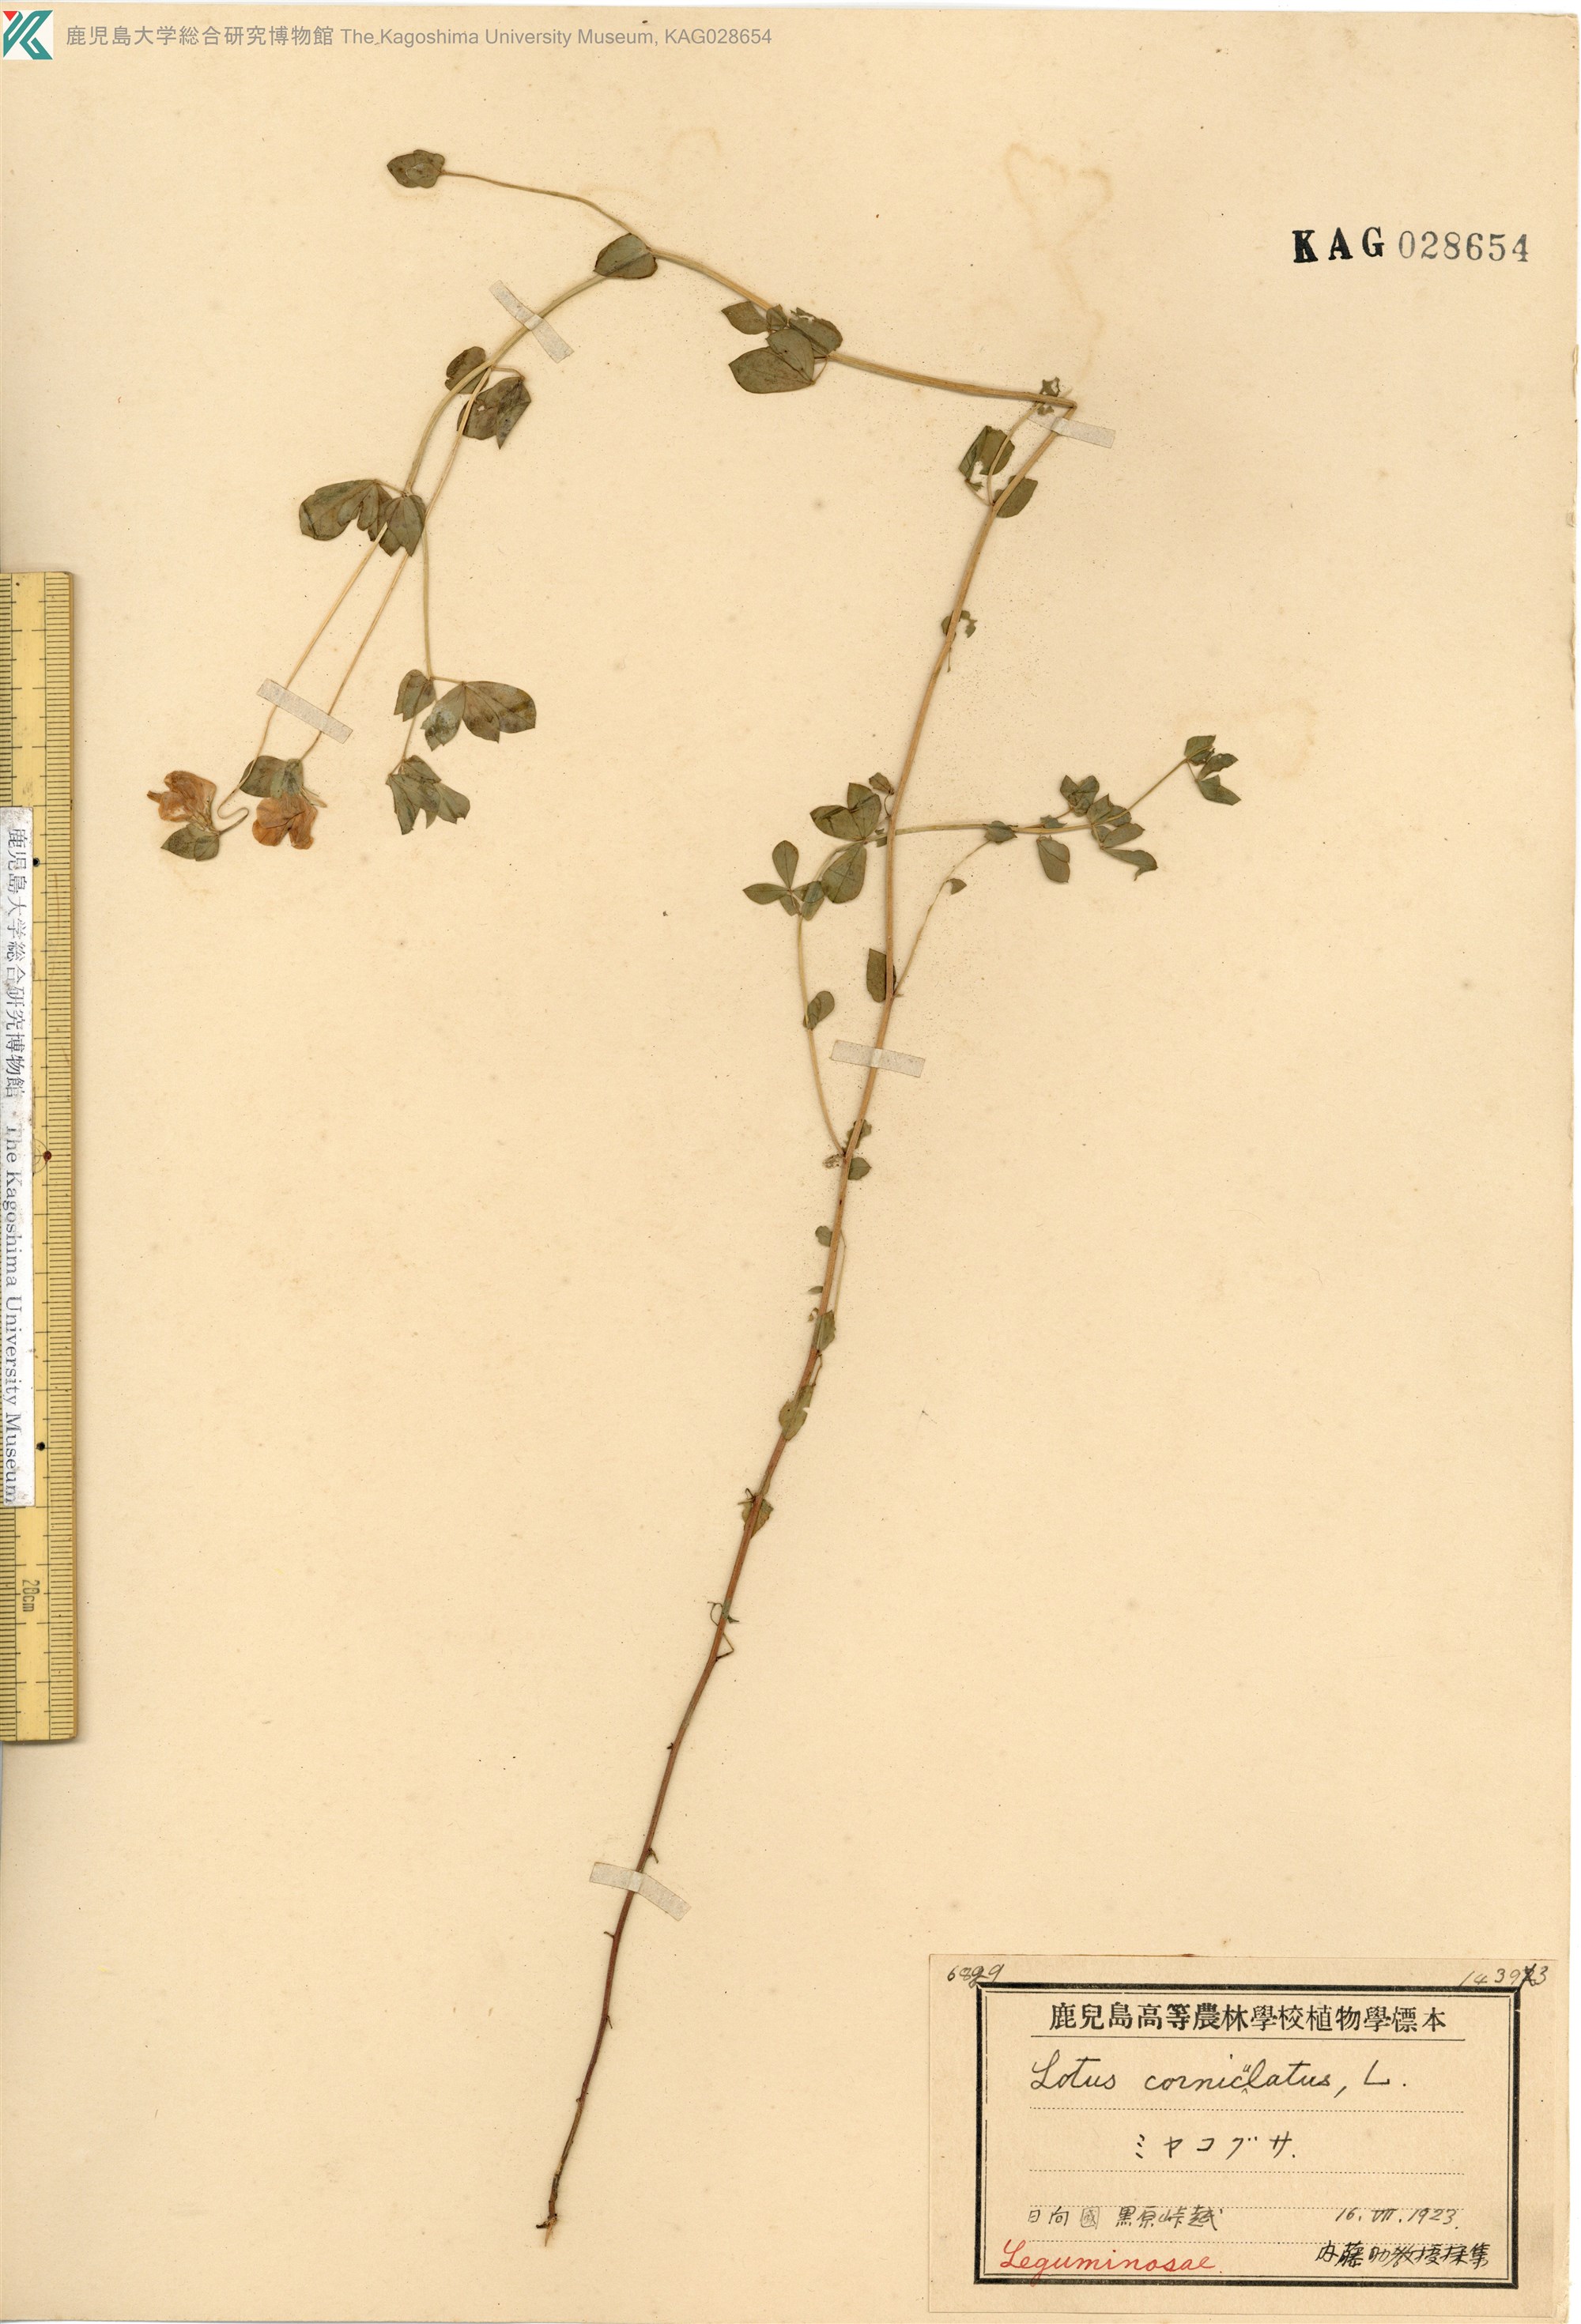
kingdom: Plantae
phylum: Tracheophyta
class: Magnoliopsida
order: Fabales
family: Fabaceae
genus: Lotus
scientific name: Lotus japonicus
